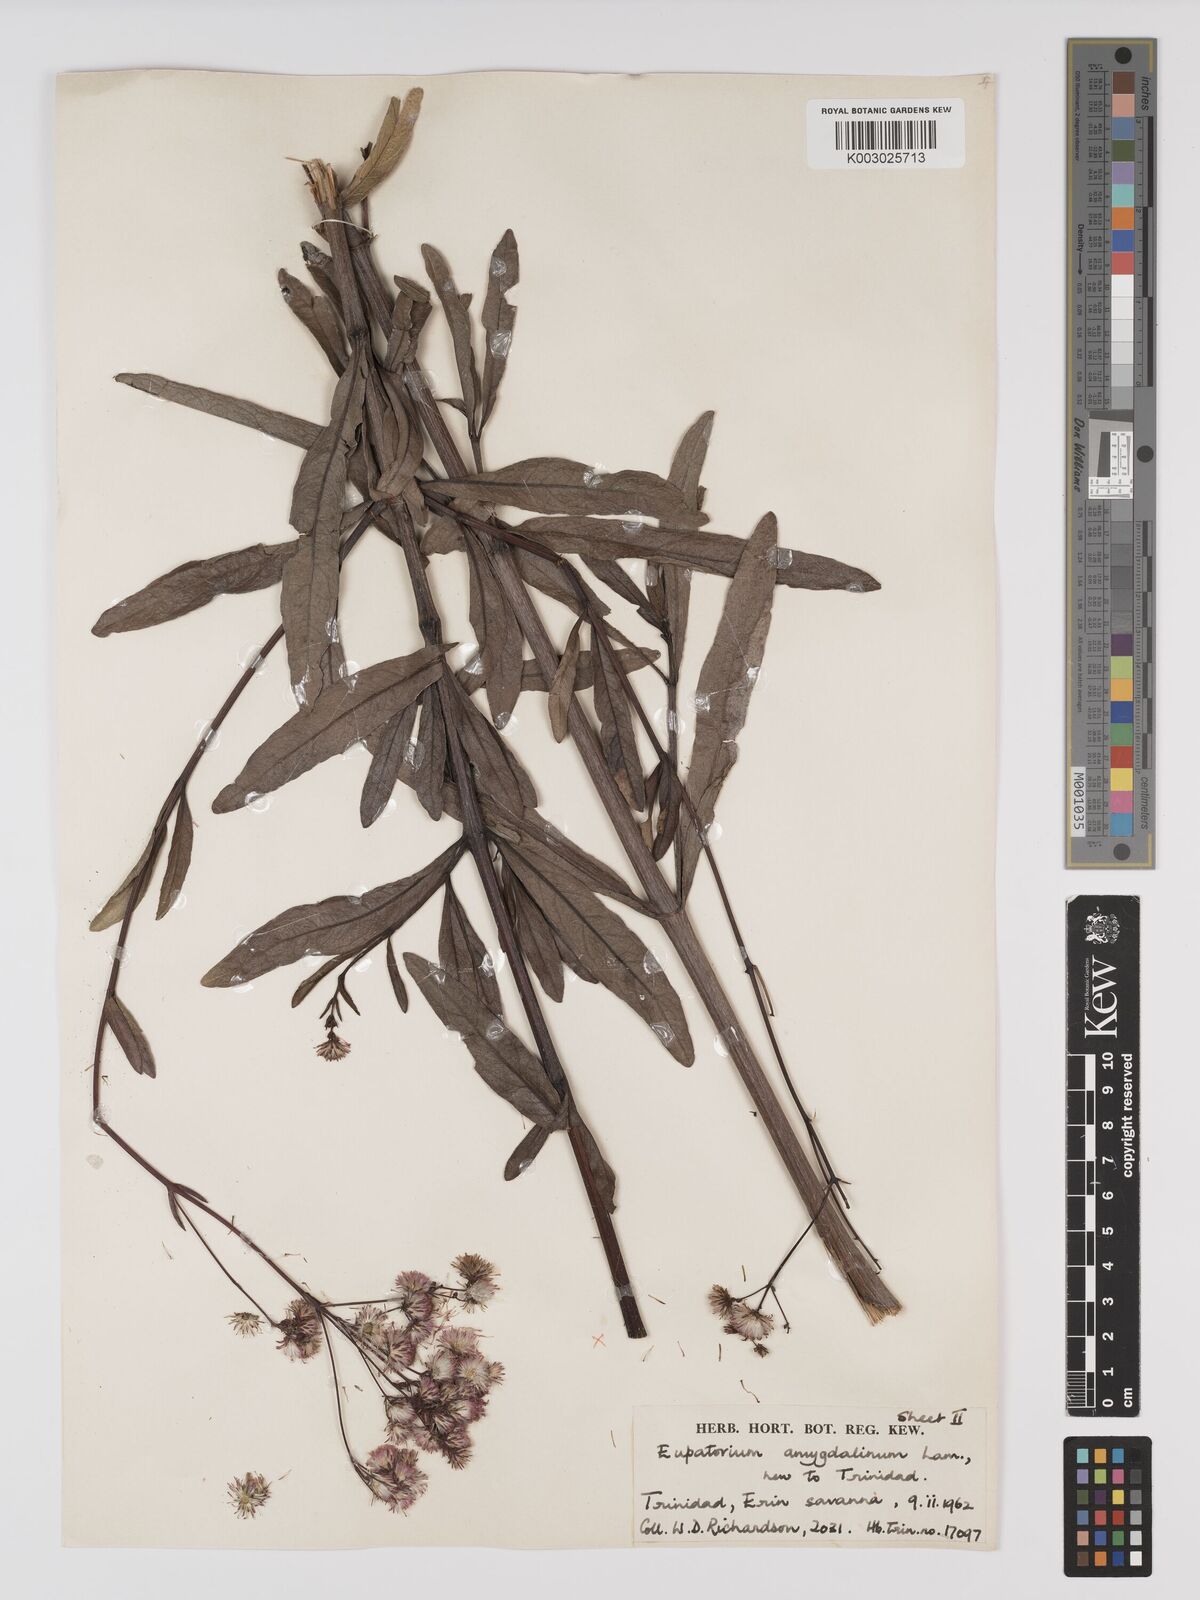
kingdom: Plantae
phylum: Tracheophyta
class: Magnoliopsida
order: Asterales
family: Asteraceae
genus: Ayapana
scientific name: Ayapana amygdalina
